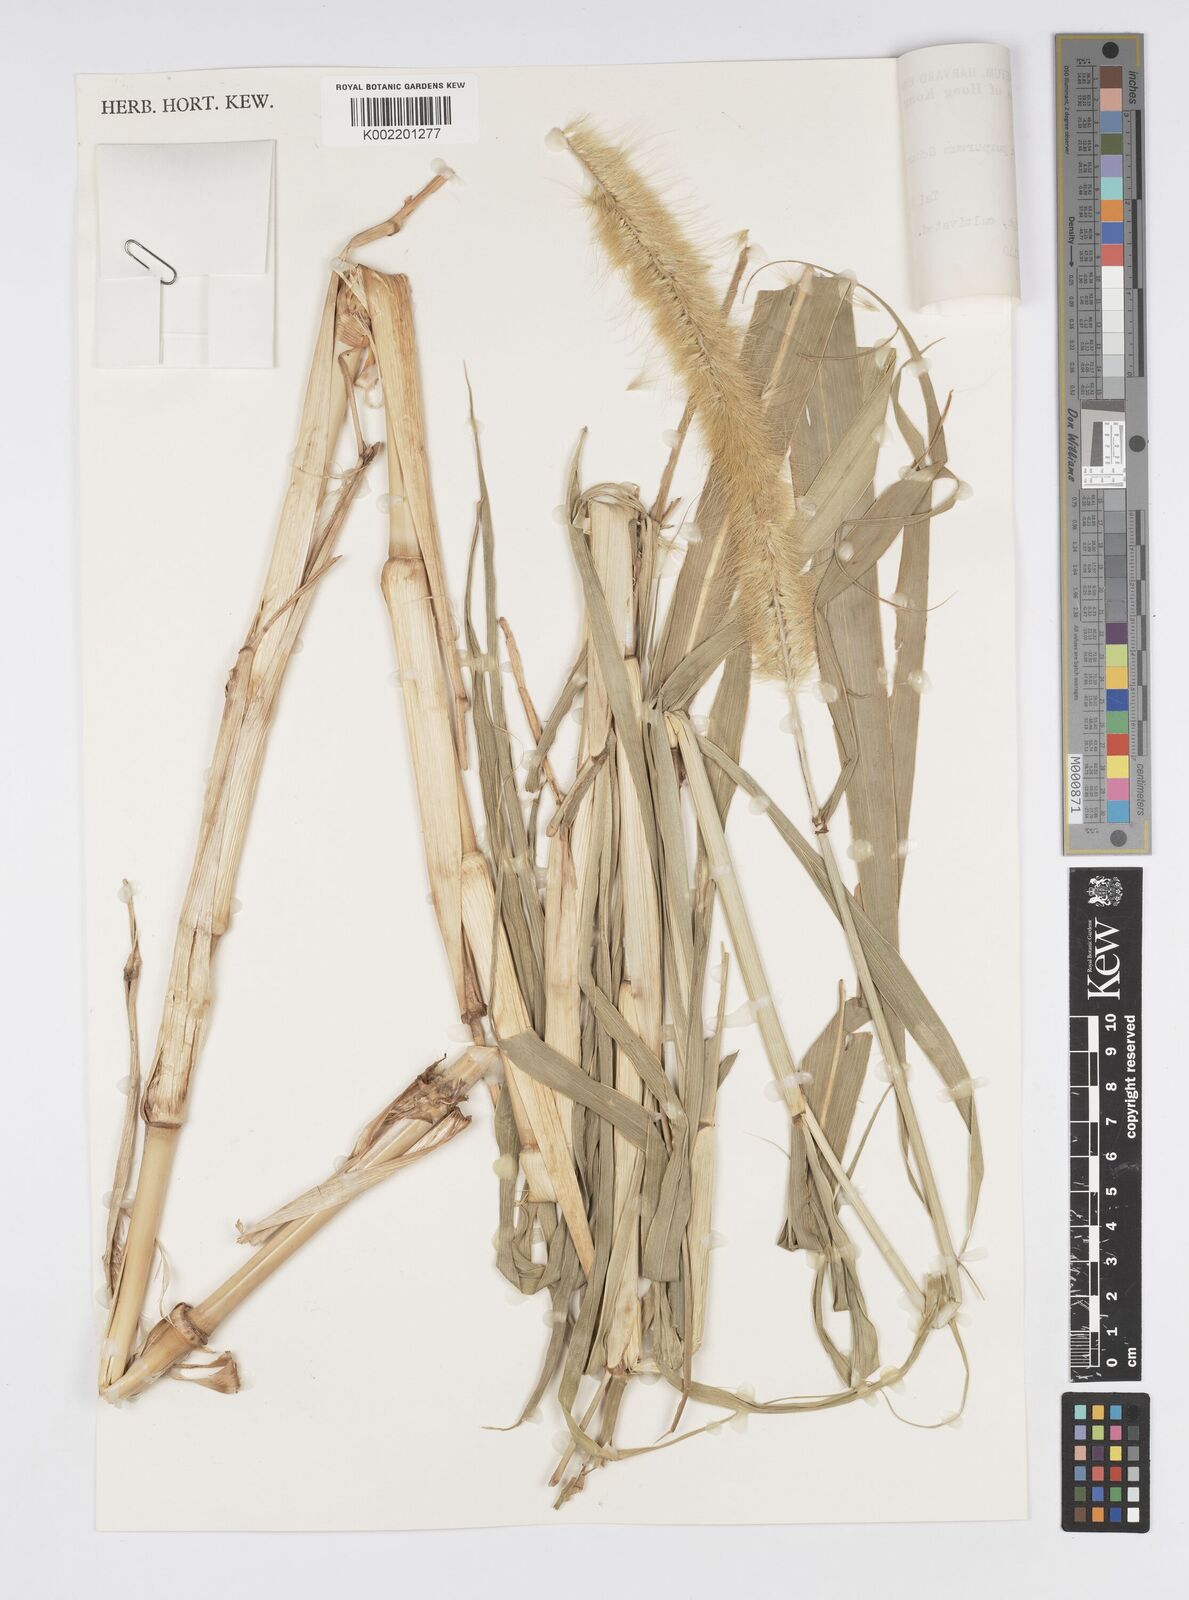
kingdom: Plantae
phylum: Tracheophyta
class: Liliopsida
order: Poales
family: Poaceae
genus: Cenchrus
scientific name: Cenchrus purpureus
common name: Elephant grass
